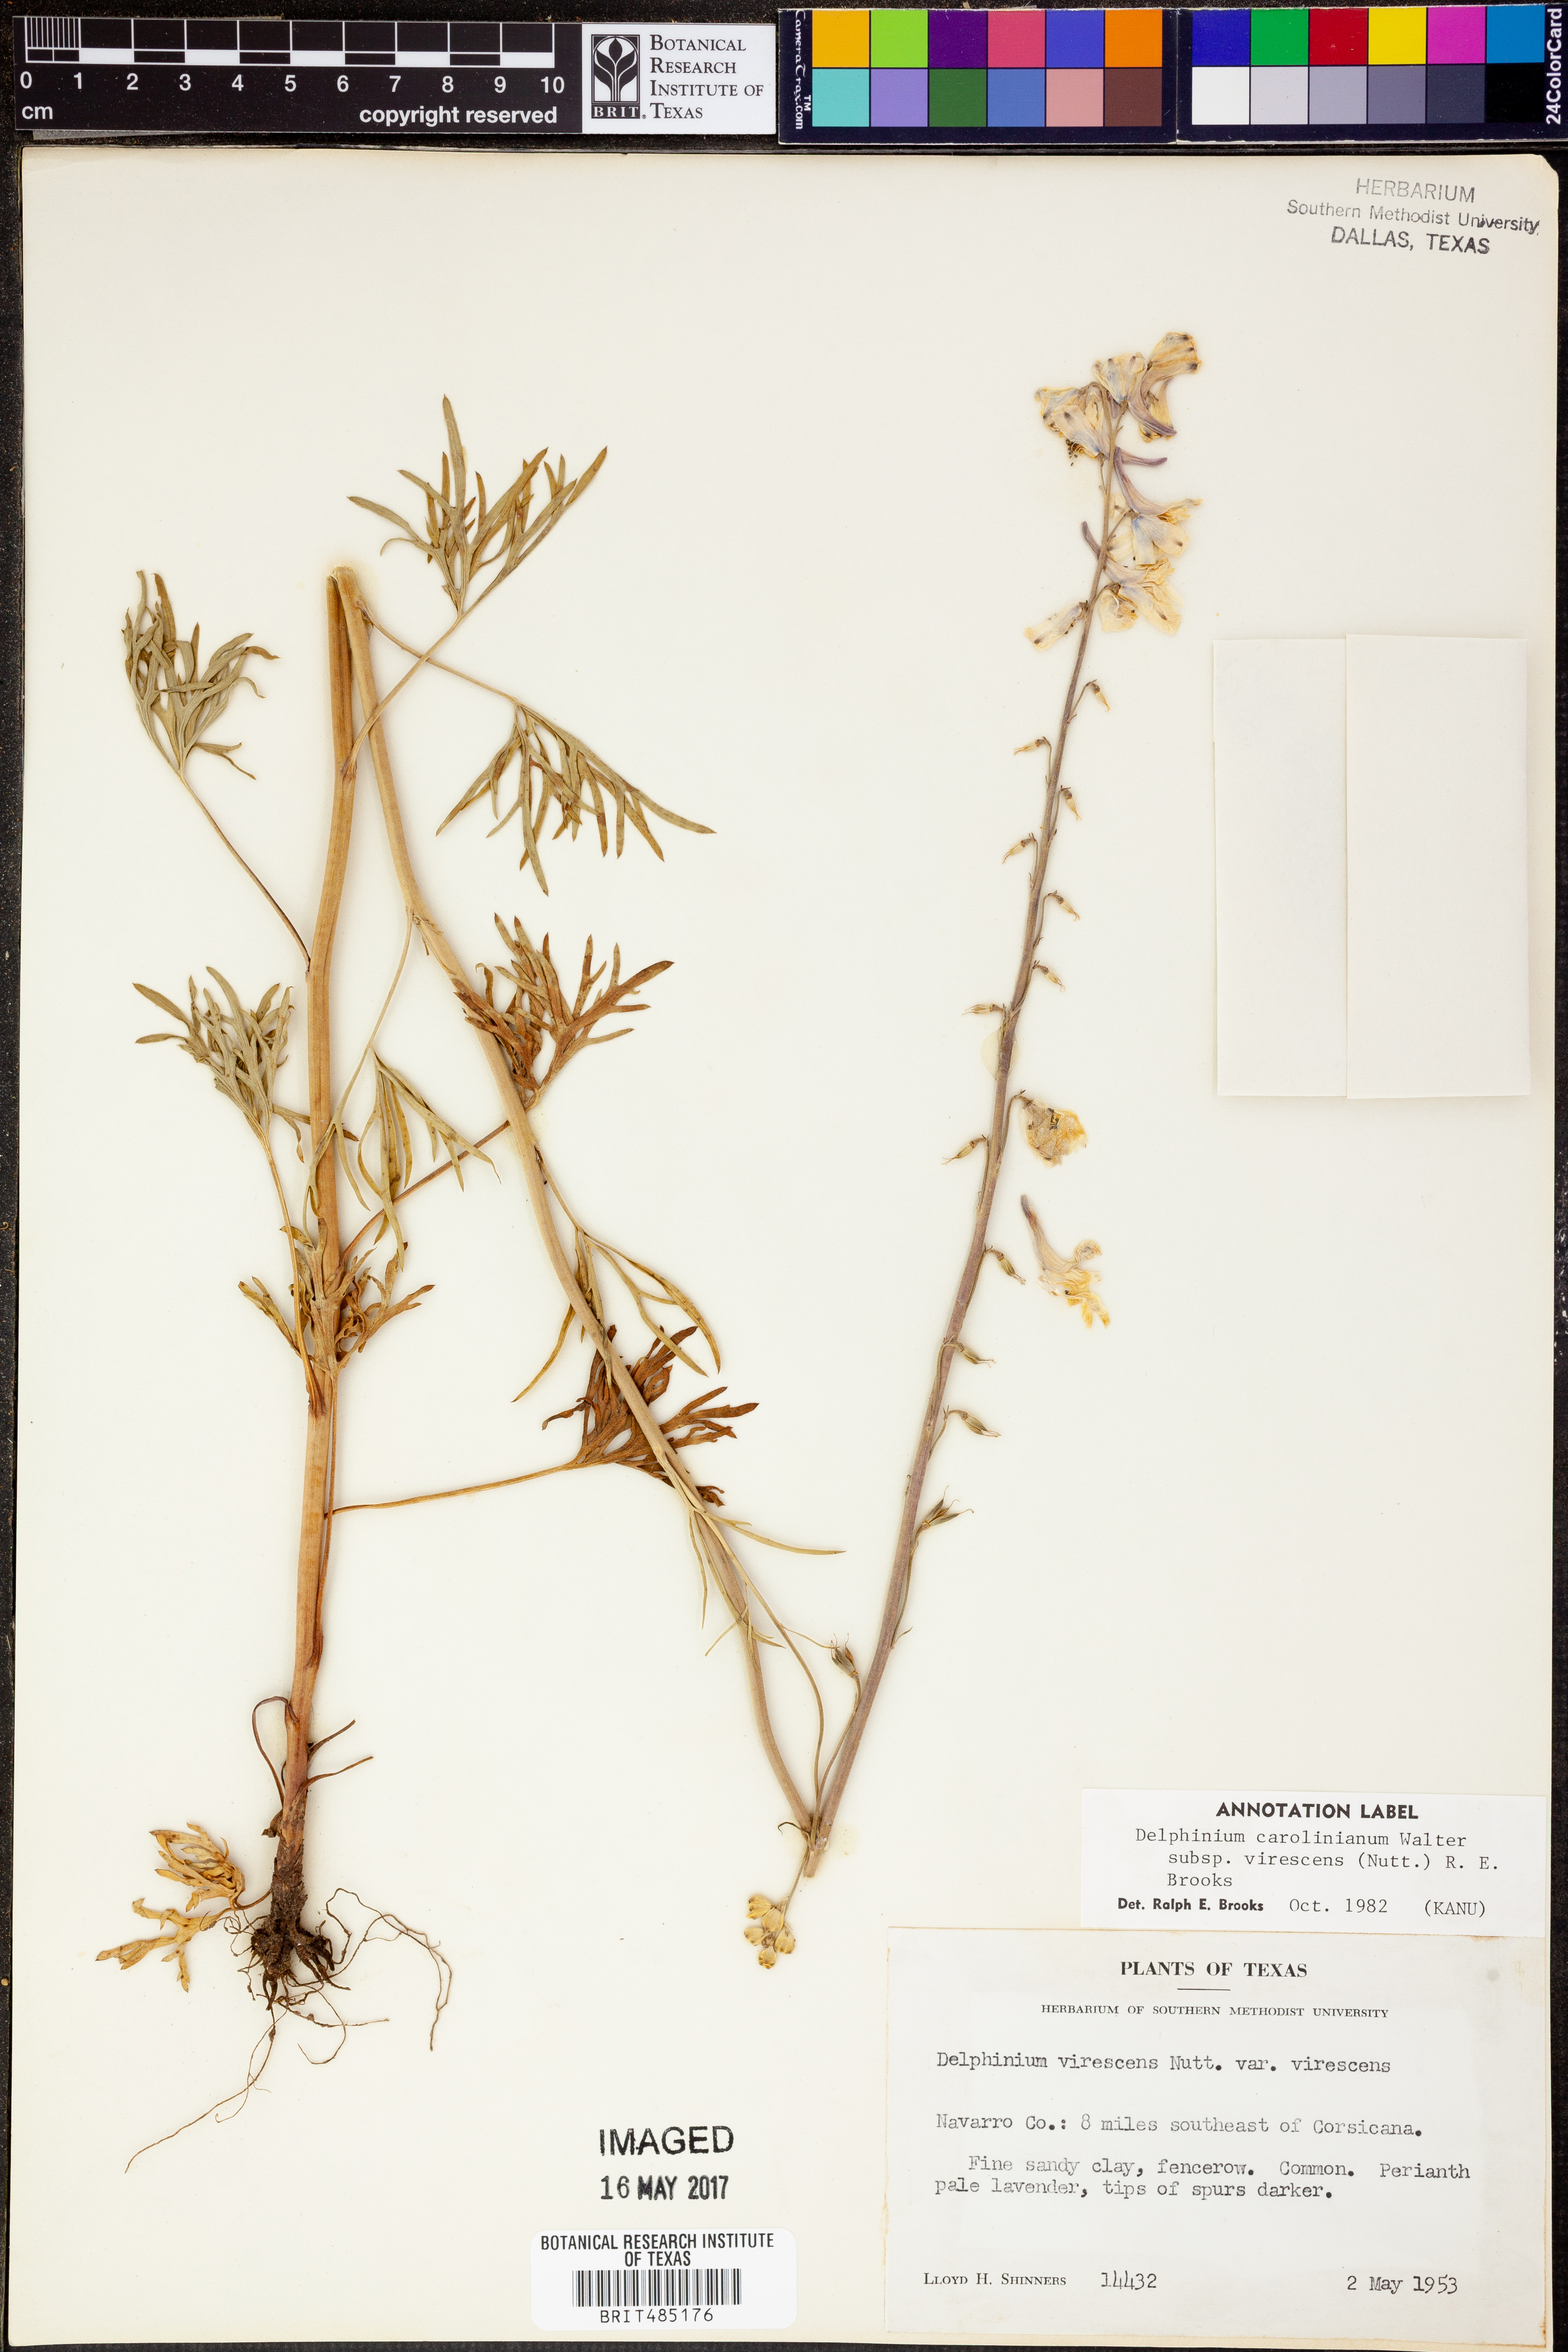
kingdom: Plantae
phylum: Tracheophyta
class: Magnoliopsida
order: Ranunculales
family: Ranunculaceae
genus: Delphinium
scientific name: Delphinium carolinianum
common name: Carolina larkspur
